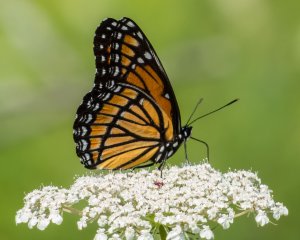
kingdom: Animalia
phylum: Arthropoda
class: Insecta
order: Lepidoptera
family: Nymphalidae
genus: Limenitis
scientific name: Limenitis archippus
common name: Viceroy
